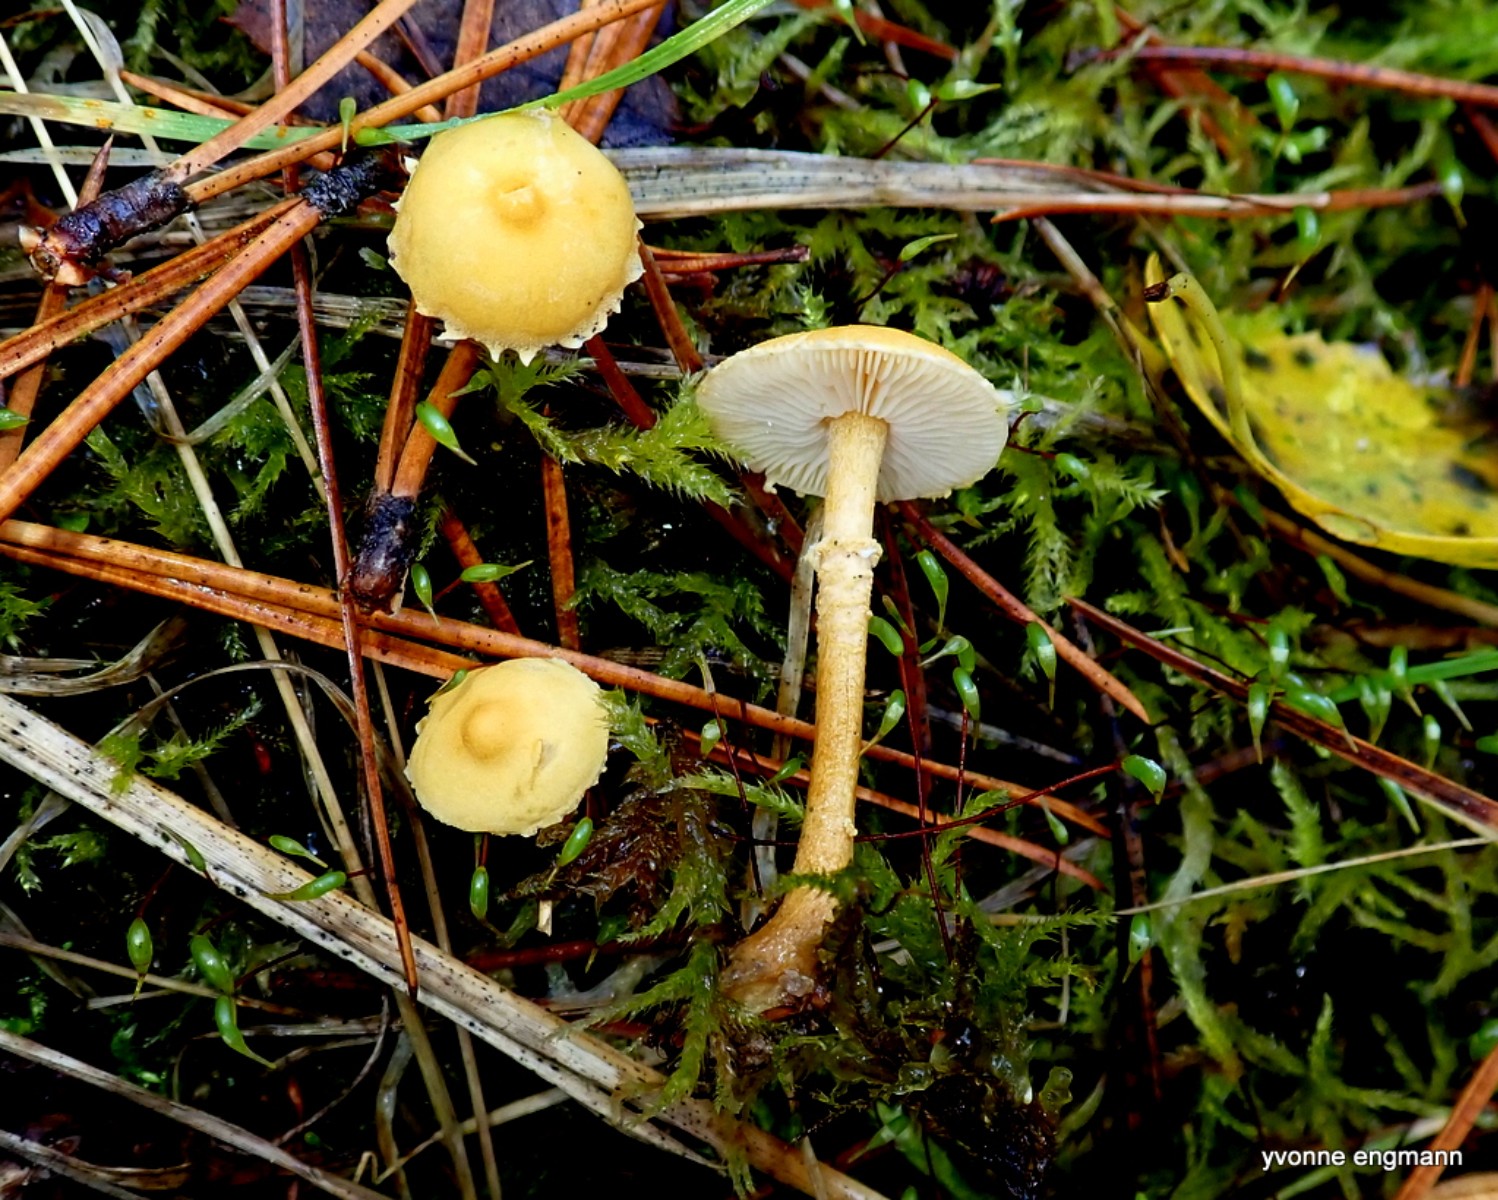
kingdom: Fungi
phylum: Basidiomycota
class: Agaricomycetes
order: Agaricales
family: Tricholomataceae
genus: Cystoderma
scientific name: Cystoderma amianthinum
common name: okkergul grynhat
